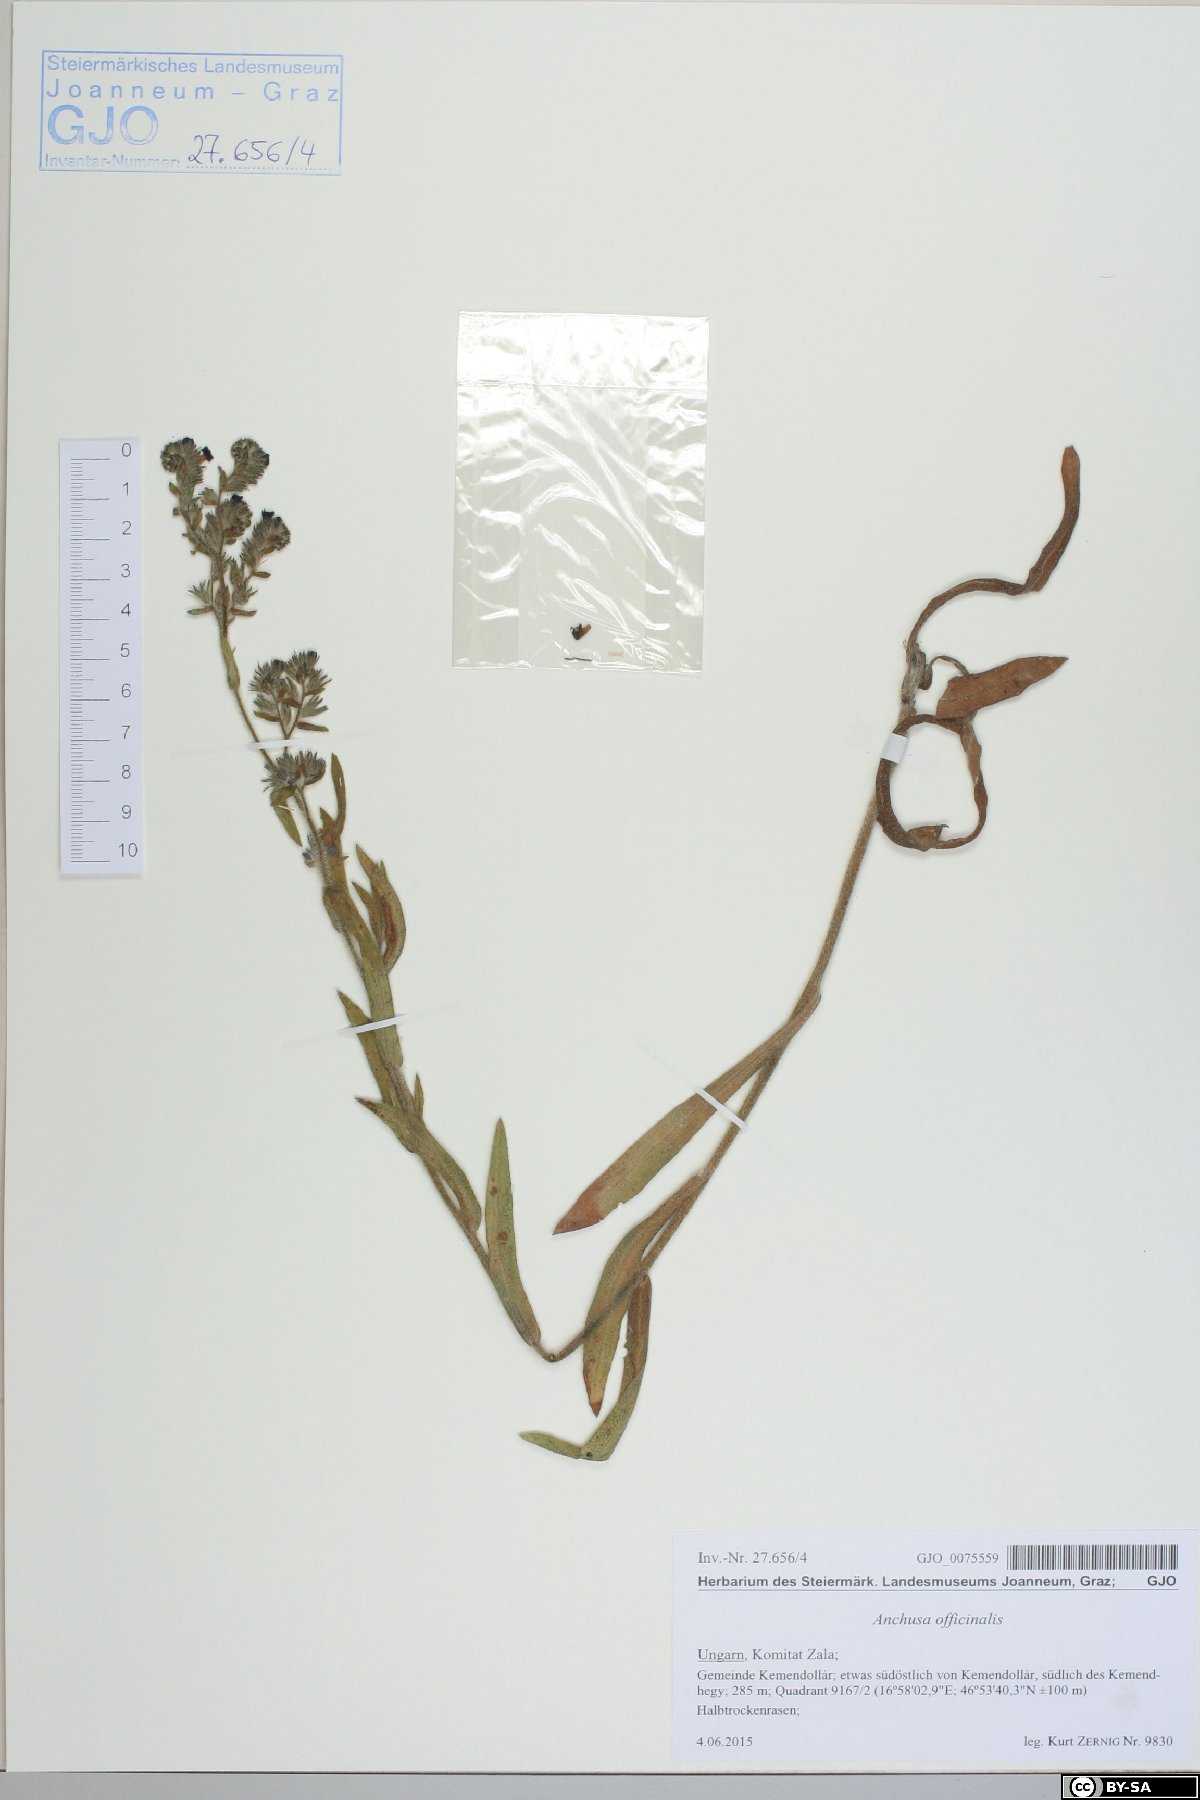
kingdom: Plantae
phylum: Tracheophyta
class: Magnoliopsida
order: Boraginales
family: Boraginaceae
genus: Anchusa
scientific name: Anchusa officinalis
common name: Alkanet
